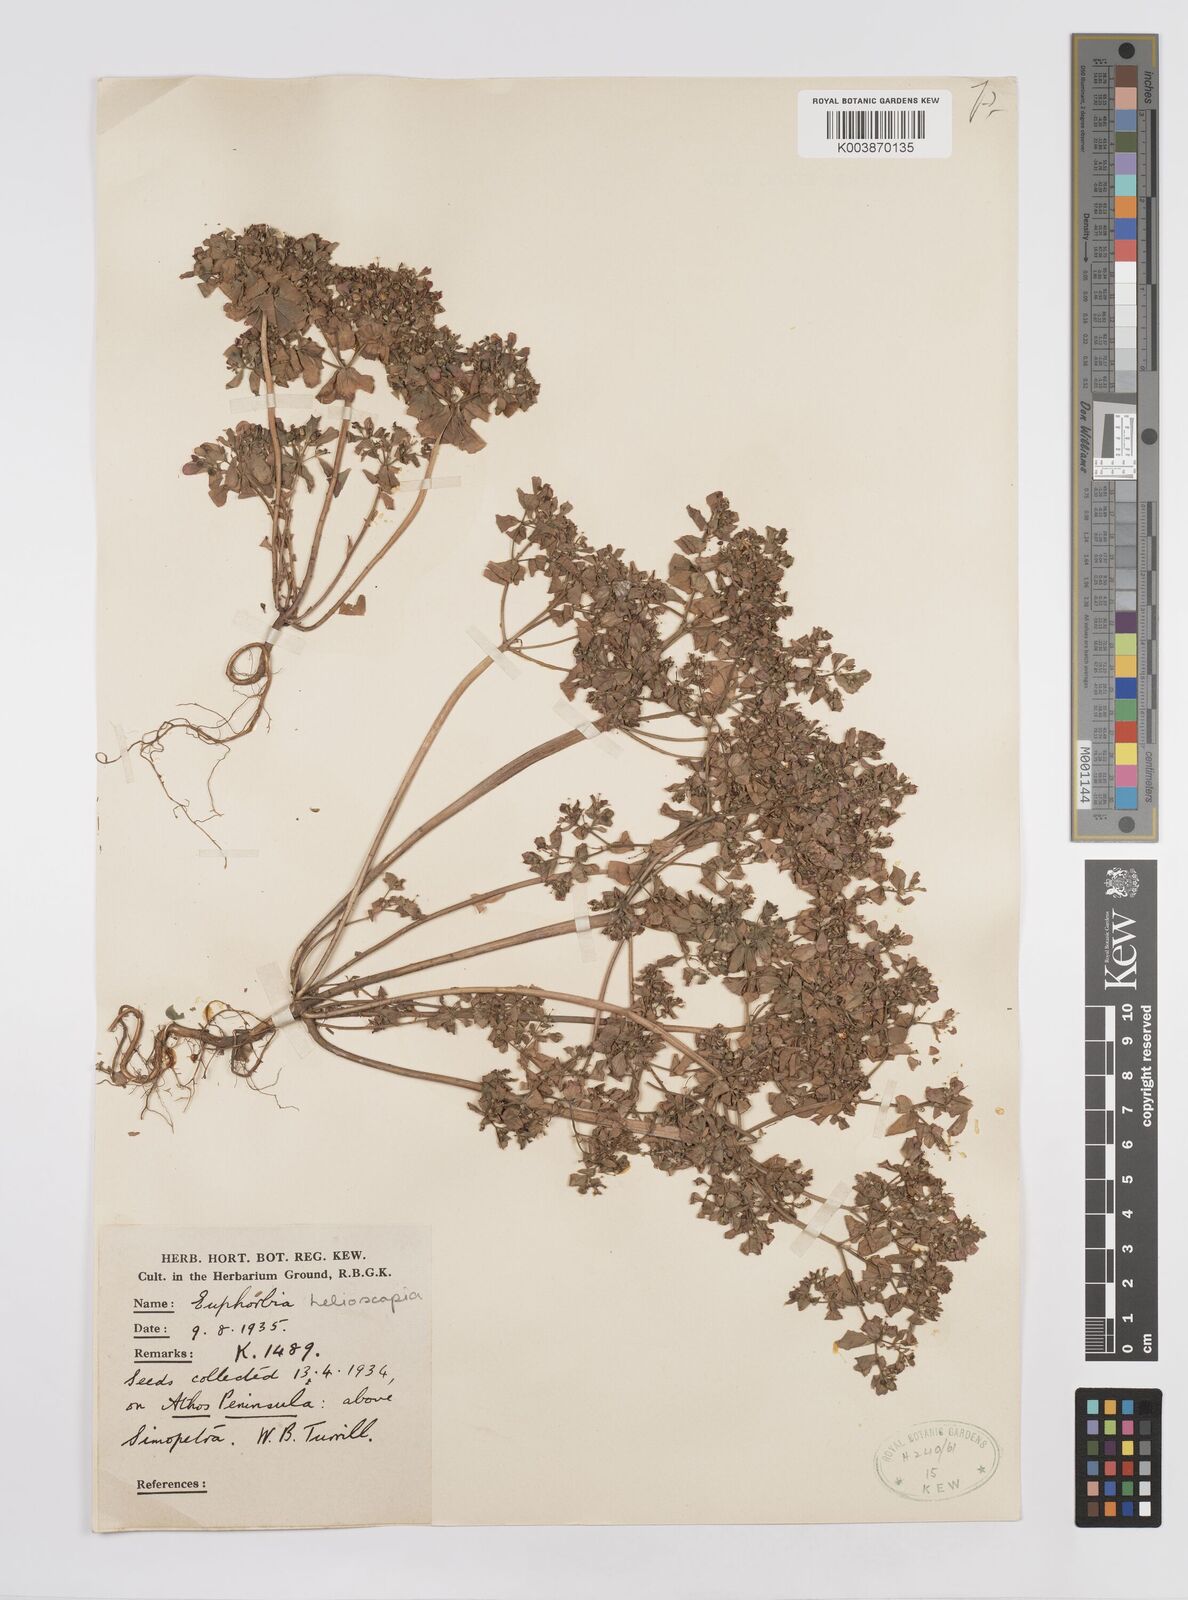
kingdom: Plantae
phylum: Tracheophyta
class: Magnoliopsida
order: Malpighiales
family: Euphorbiaceae
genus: Euphorbia
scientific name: Euphorbia peplus
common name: Petty spurge
